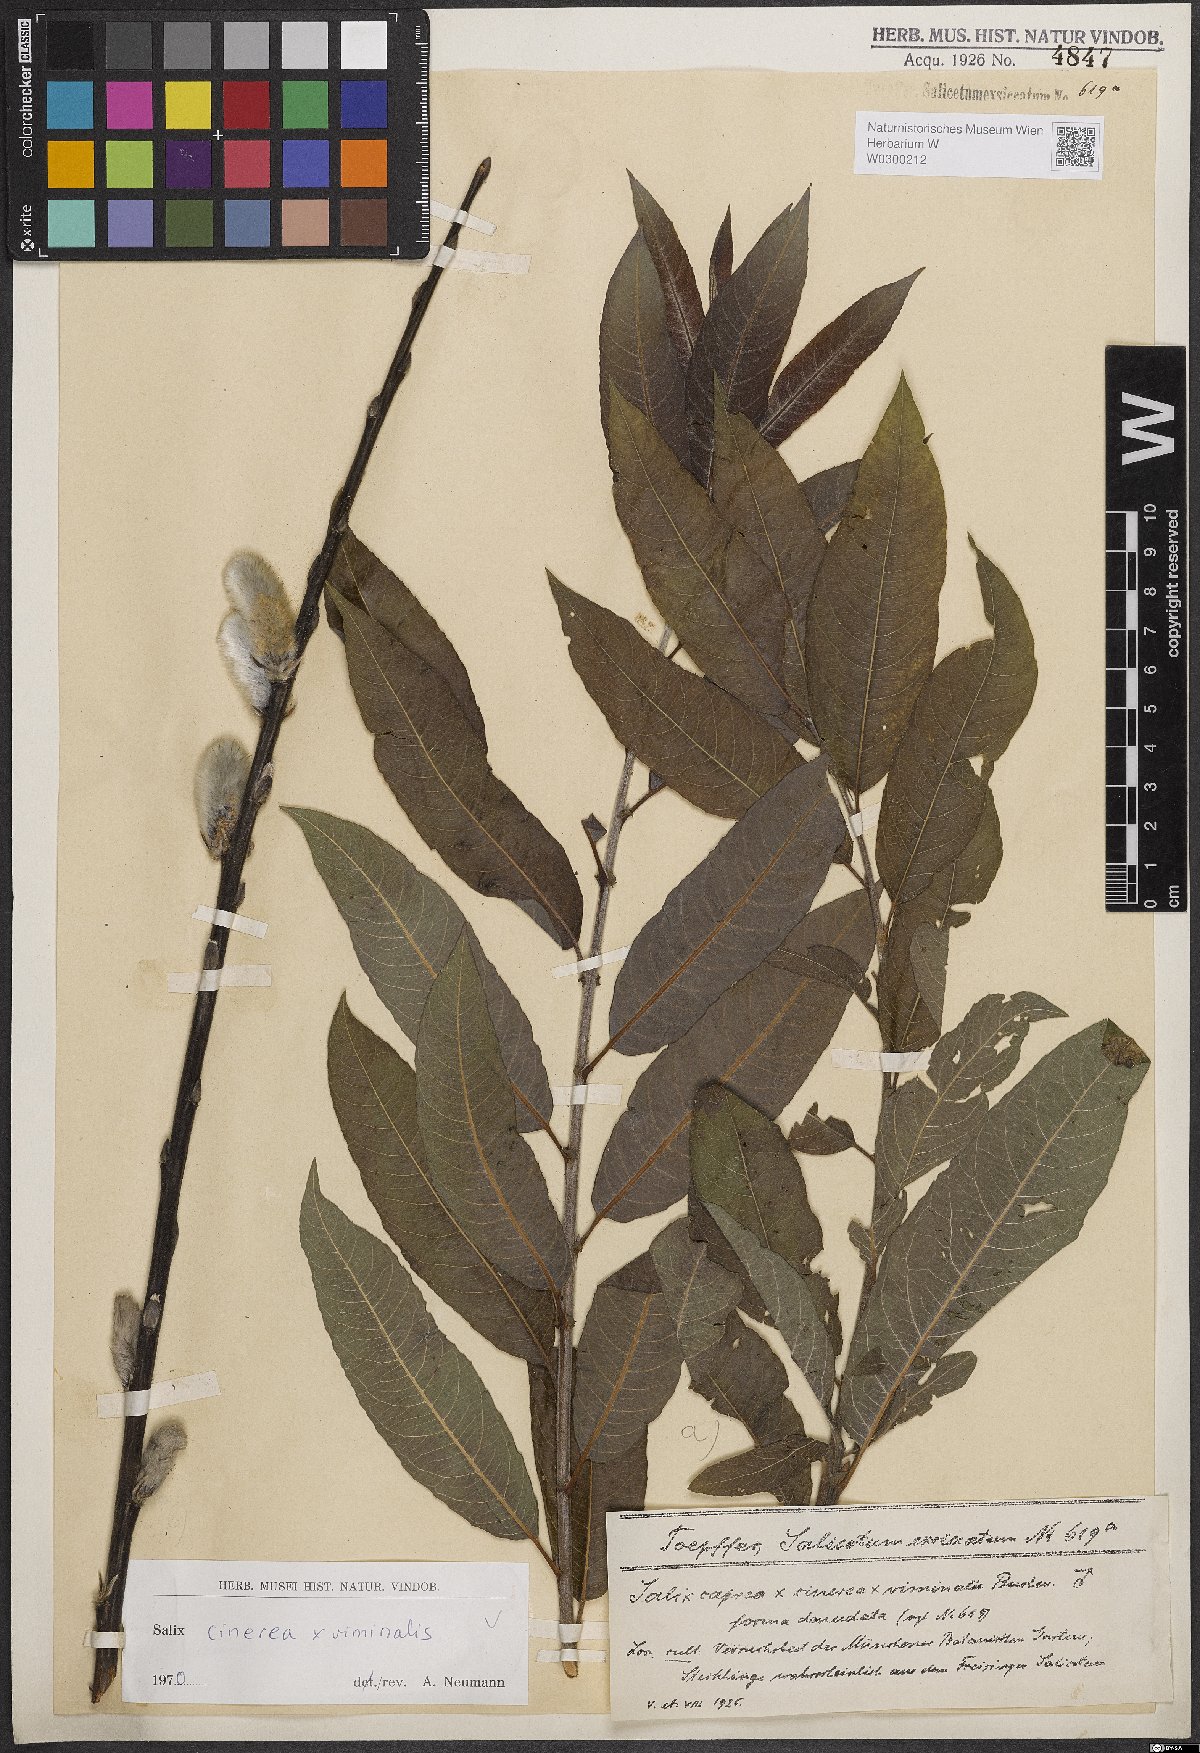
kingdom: Plantae
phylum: Tracheophyta
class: Magnoliopsida
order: Malpighiales
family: Salicaceae
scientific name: Salicaceae
